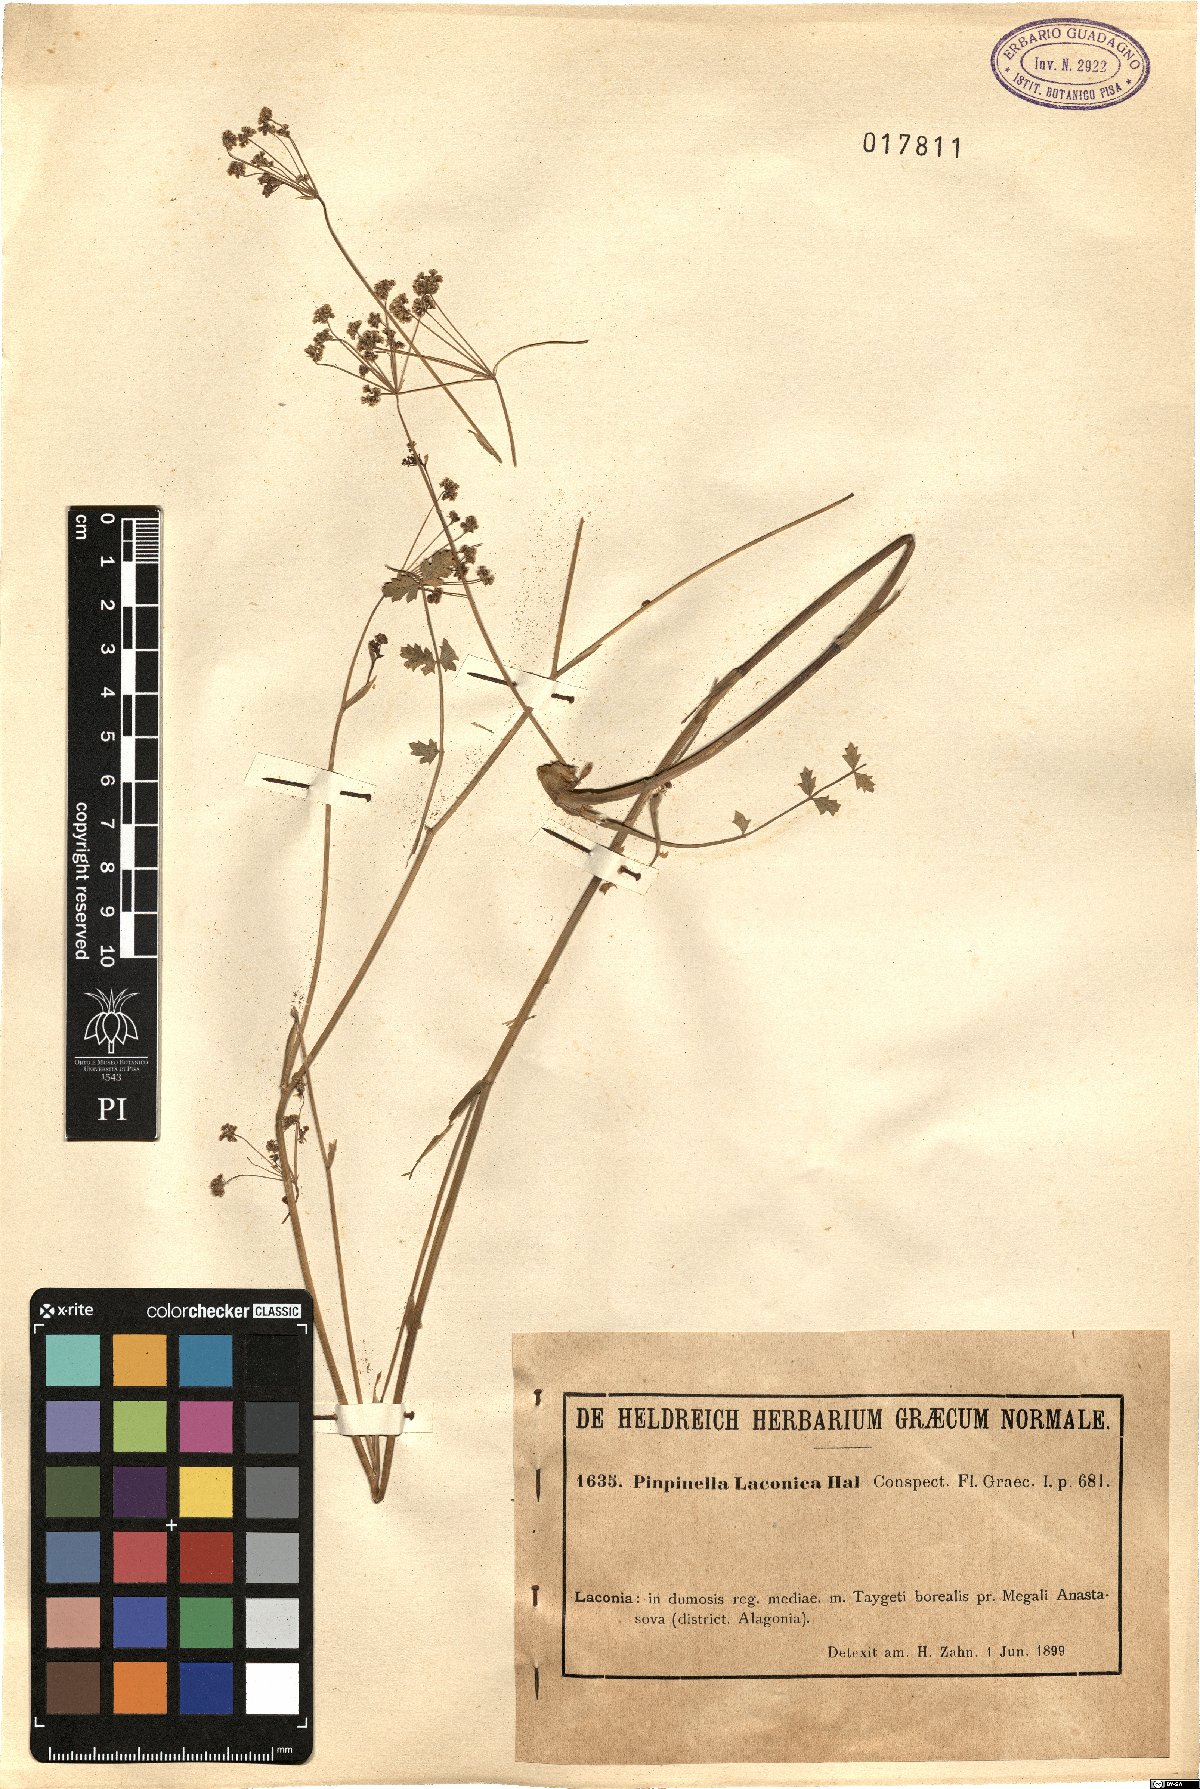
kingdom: Plantae
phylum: Tracheophyta
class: Magnoliopsida
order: Apiales
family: Apiaceae
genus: Pimpinella
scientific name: Pimpinella saxifraga
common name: Burnet-saxifrage
